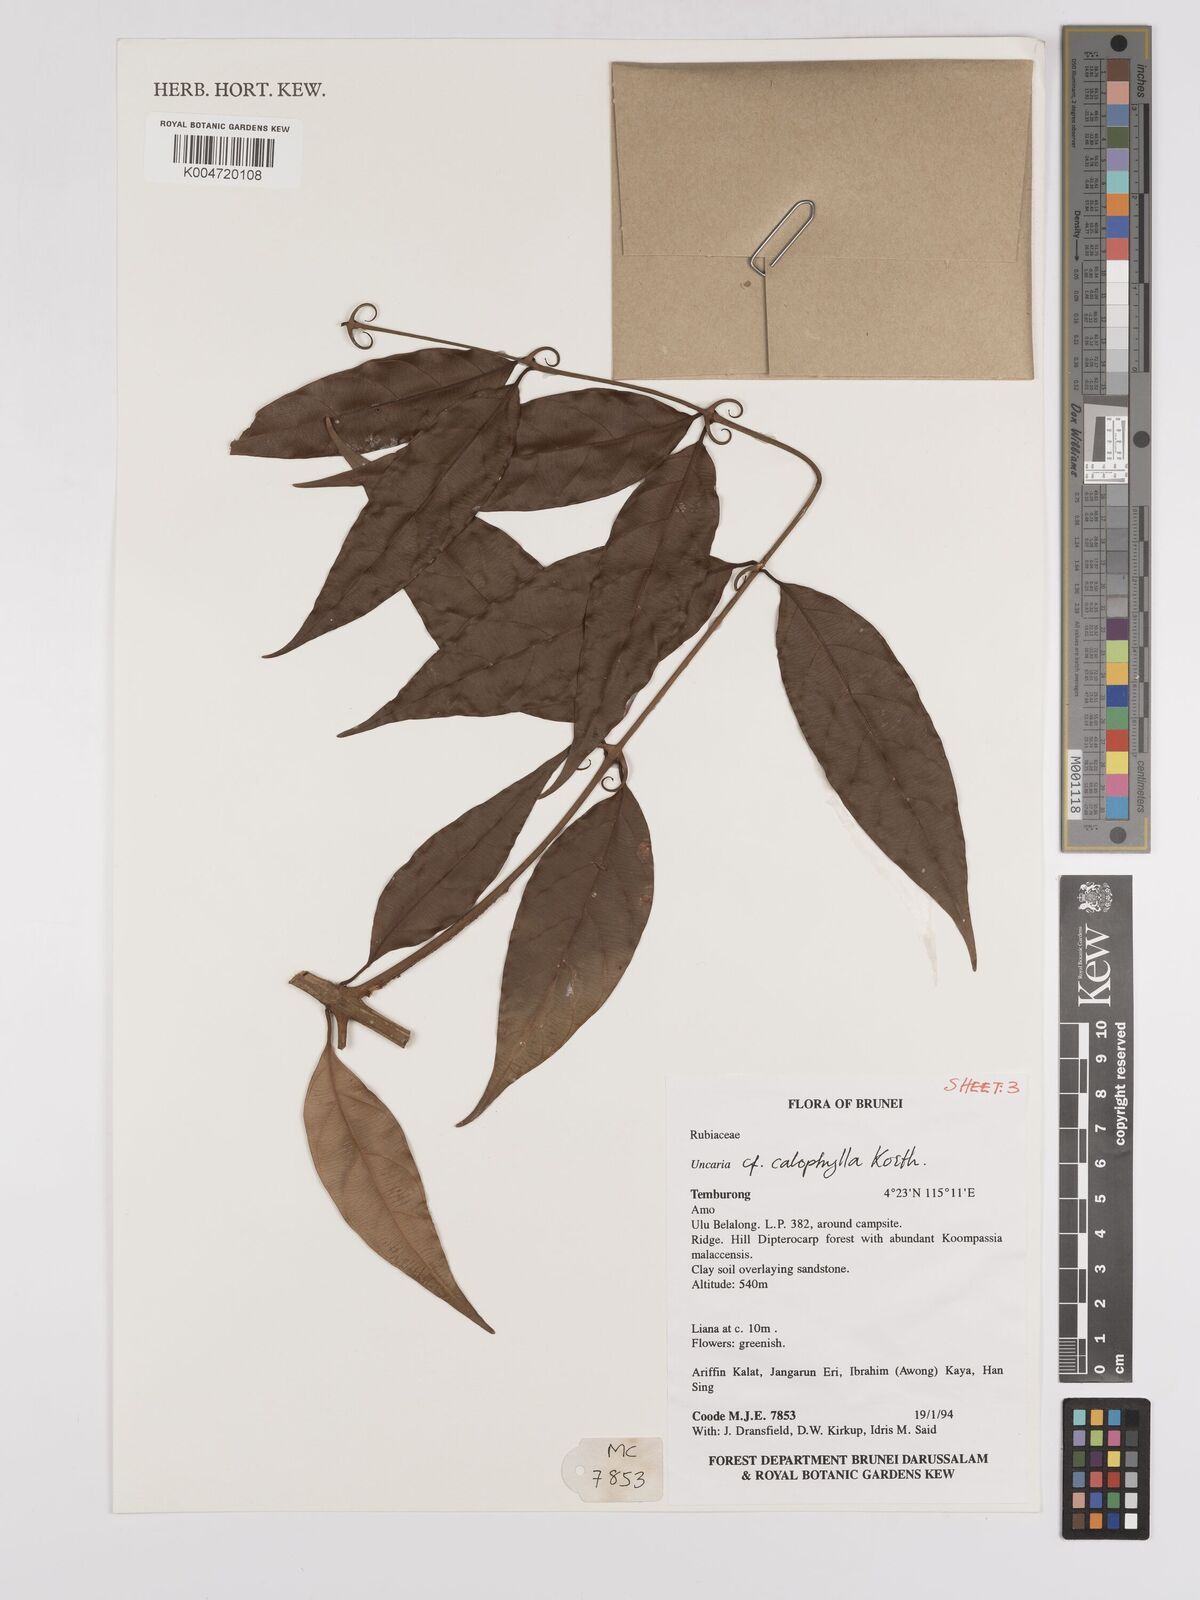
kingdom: Plantae
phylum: Tracheophyta
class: Magnoliopsida
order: Gentianales
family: Rubiaceae
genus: Uncaria
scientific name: Uncaria
